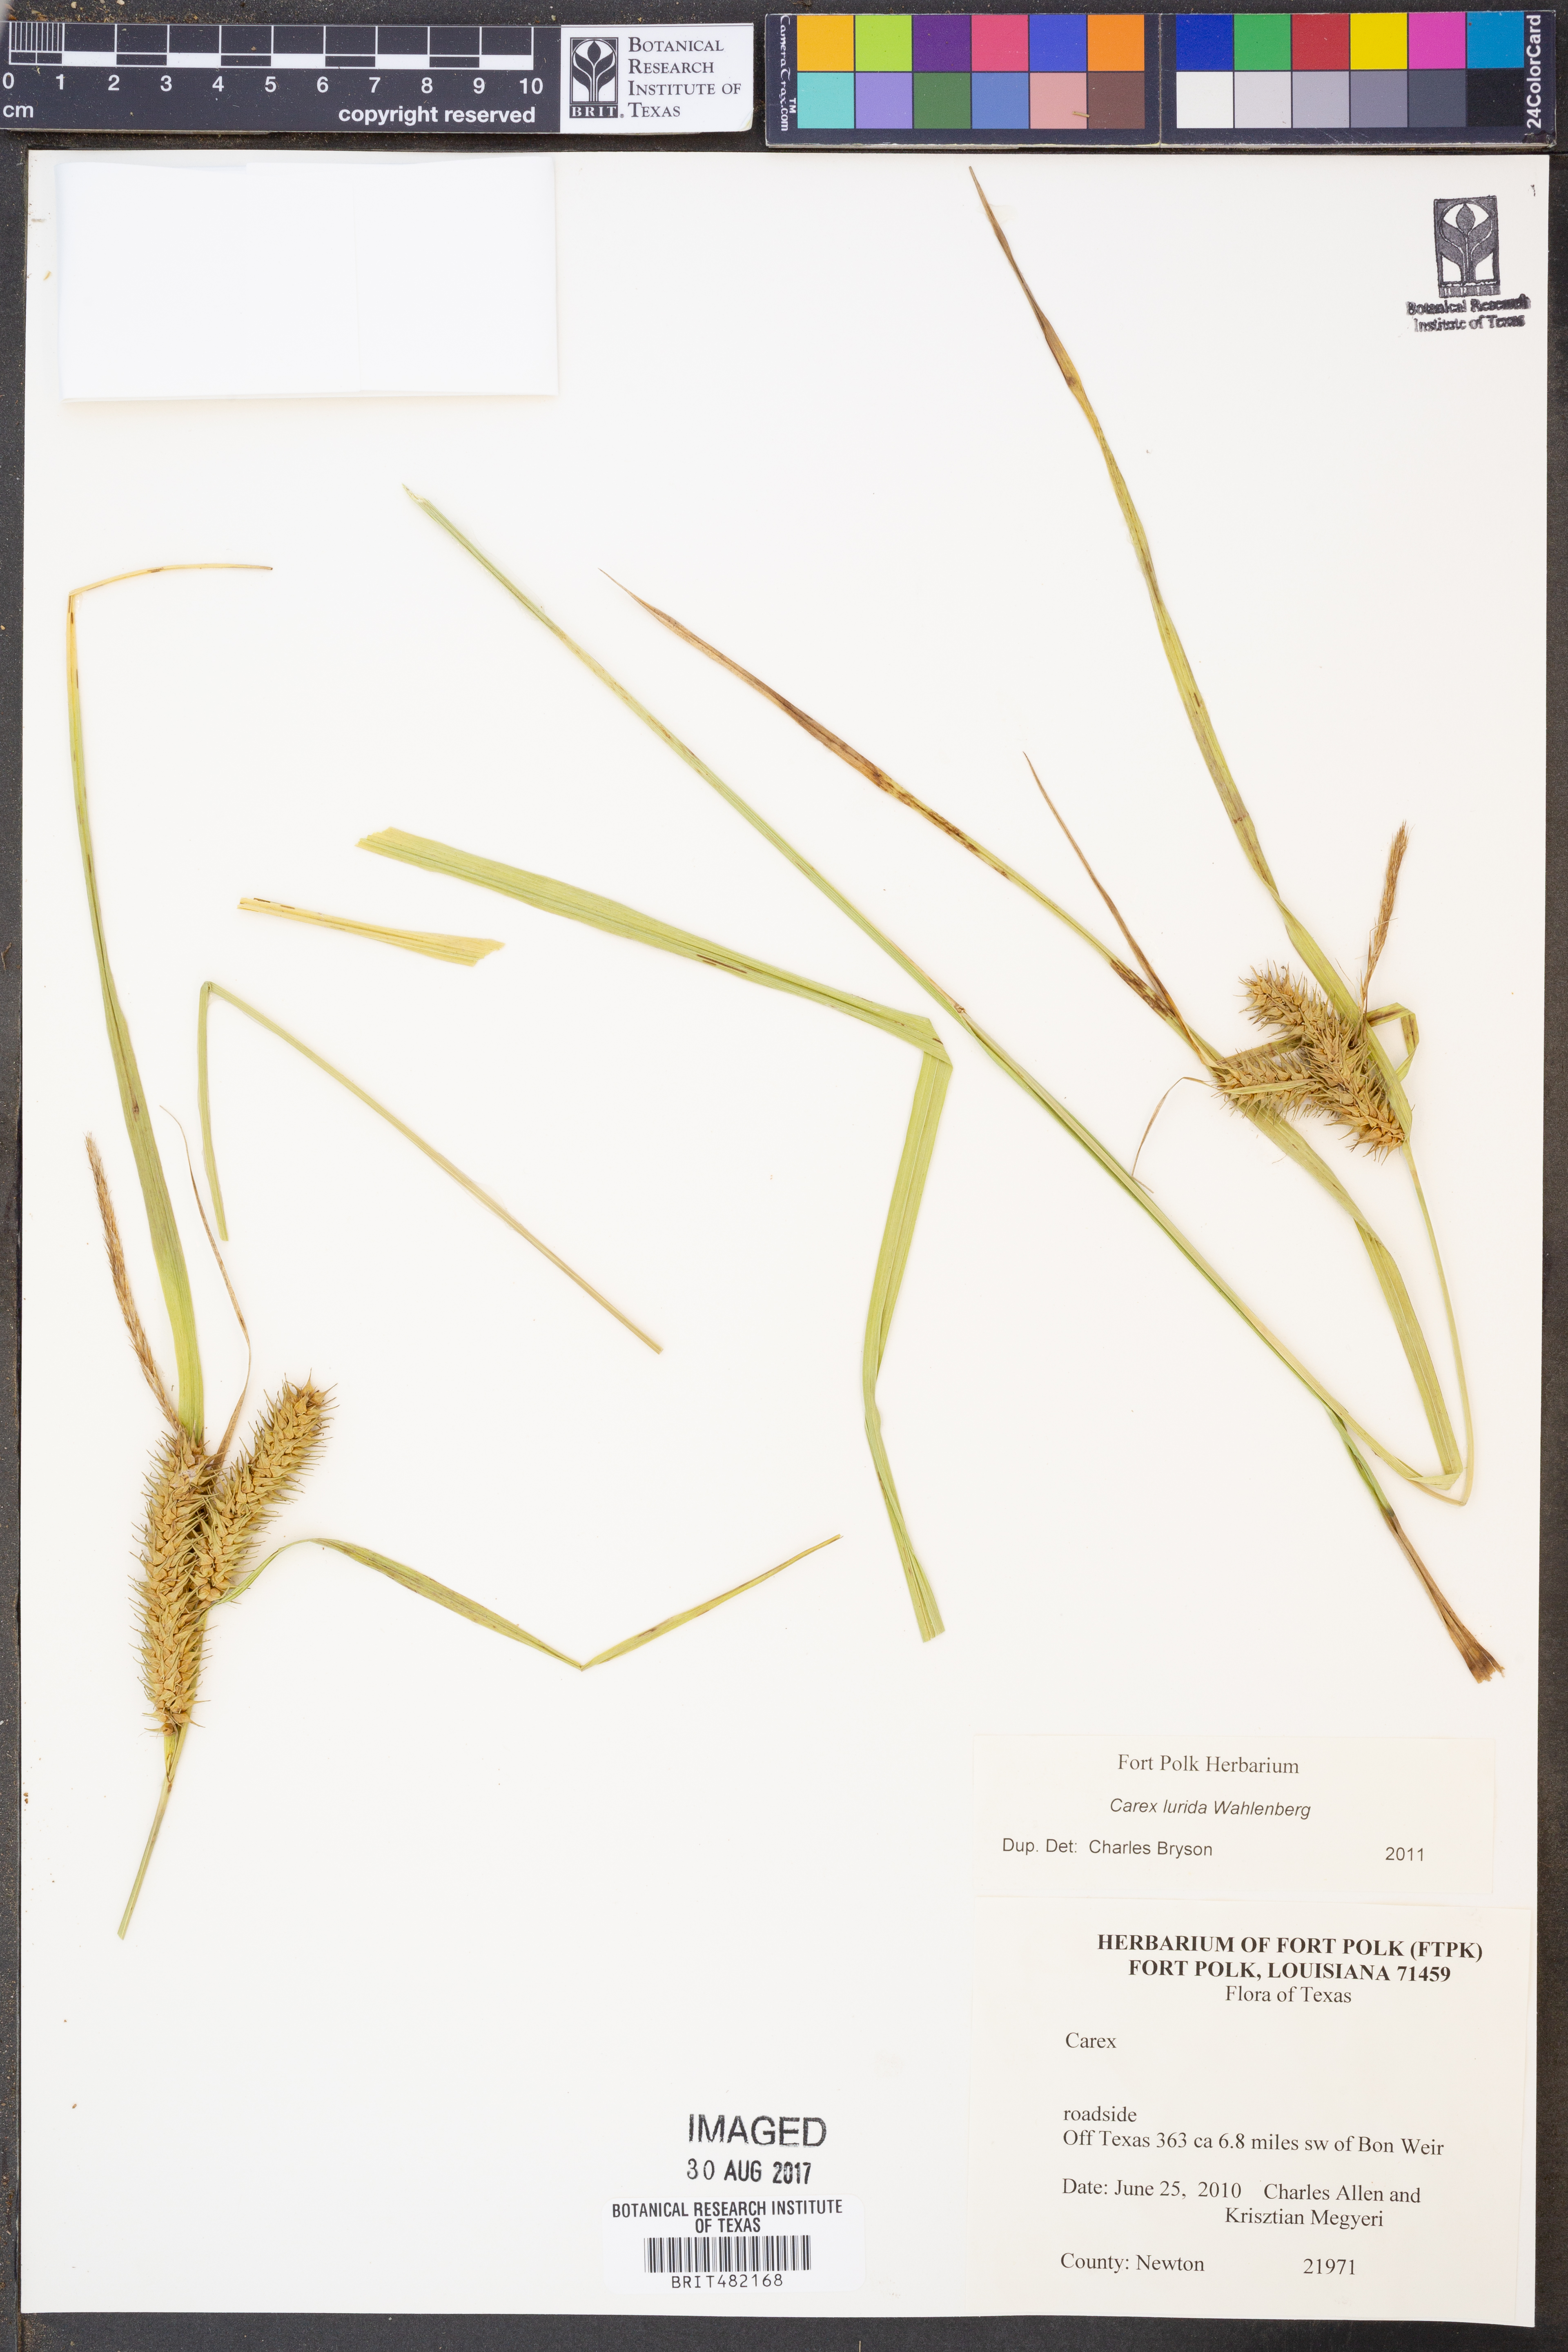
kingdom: Plantae
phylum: Tracheophyta
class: Liliopsida
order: Poales
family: Cyperaceae
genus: Carex
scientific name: Carex lurida
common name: Sallow sedge
